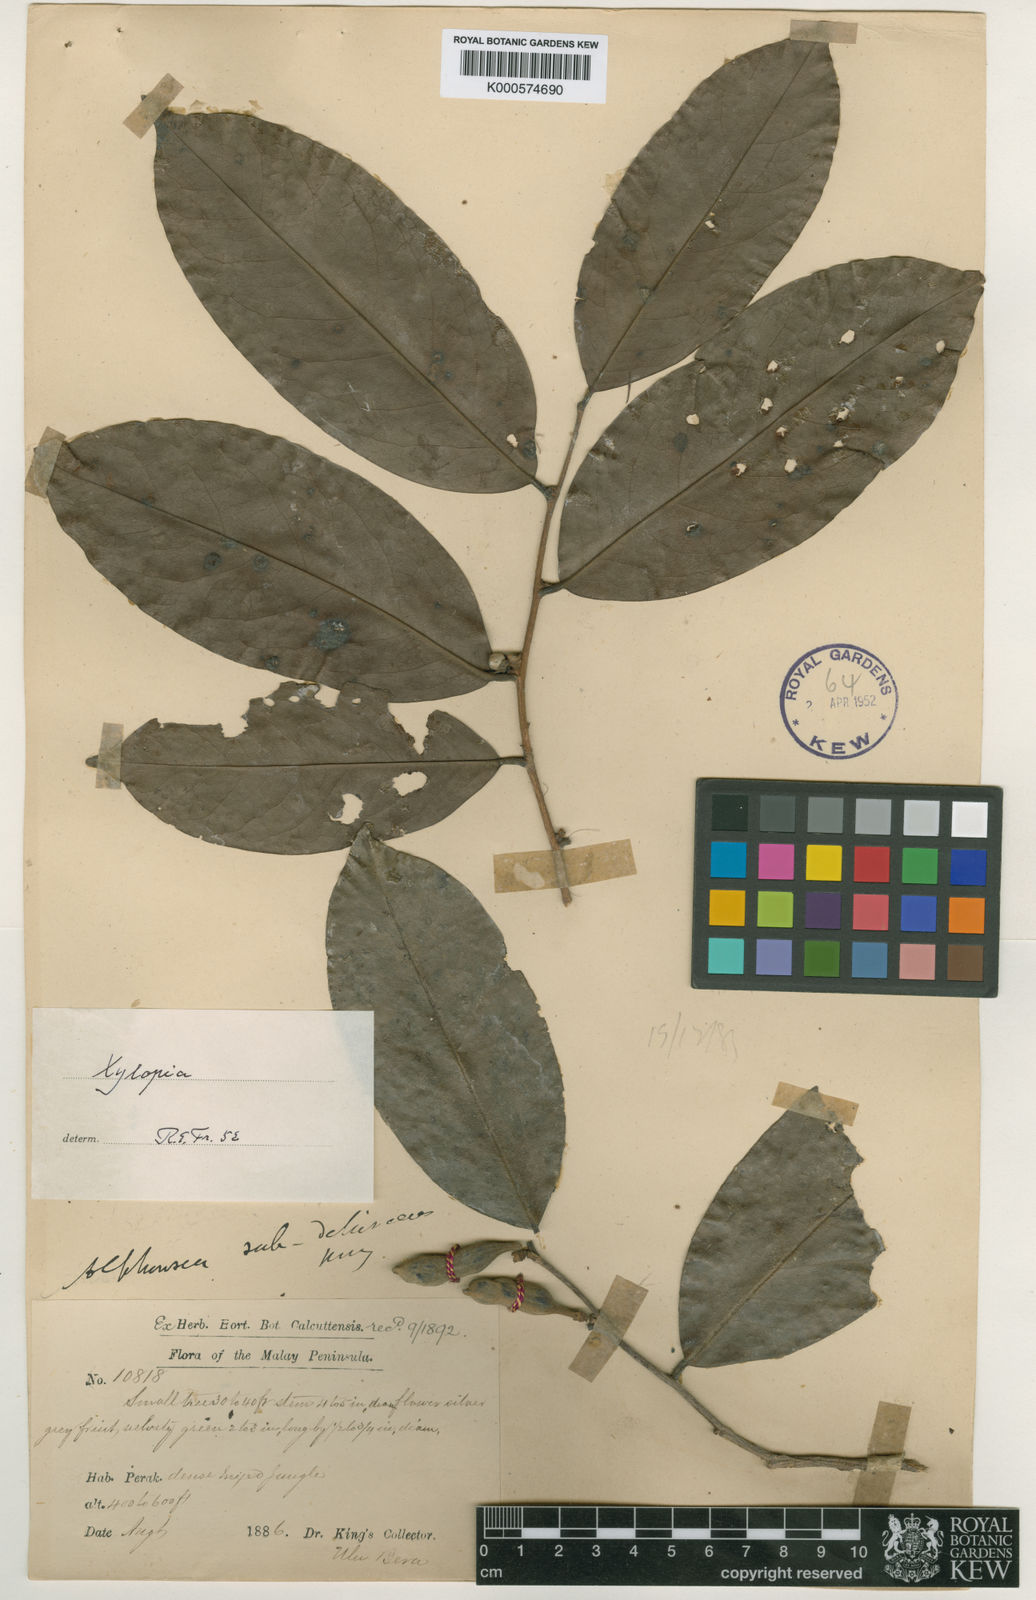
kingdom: Plantae
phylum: Tracheophyta
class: Magnoliopsida
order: Magnoliales
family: Annonaceae
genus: Xylopia
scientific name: Xylopia subdehiscens
